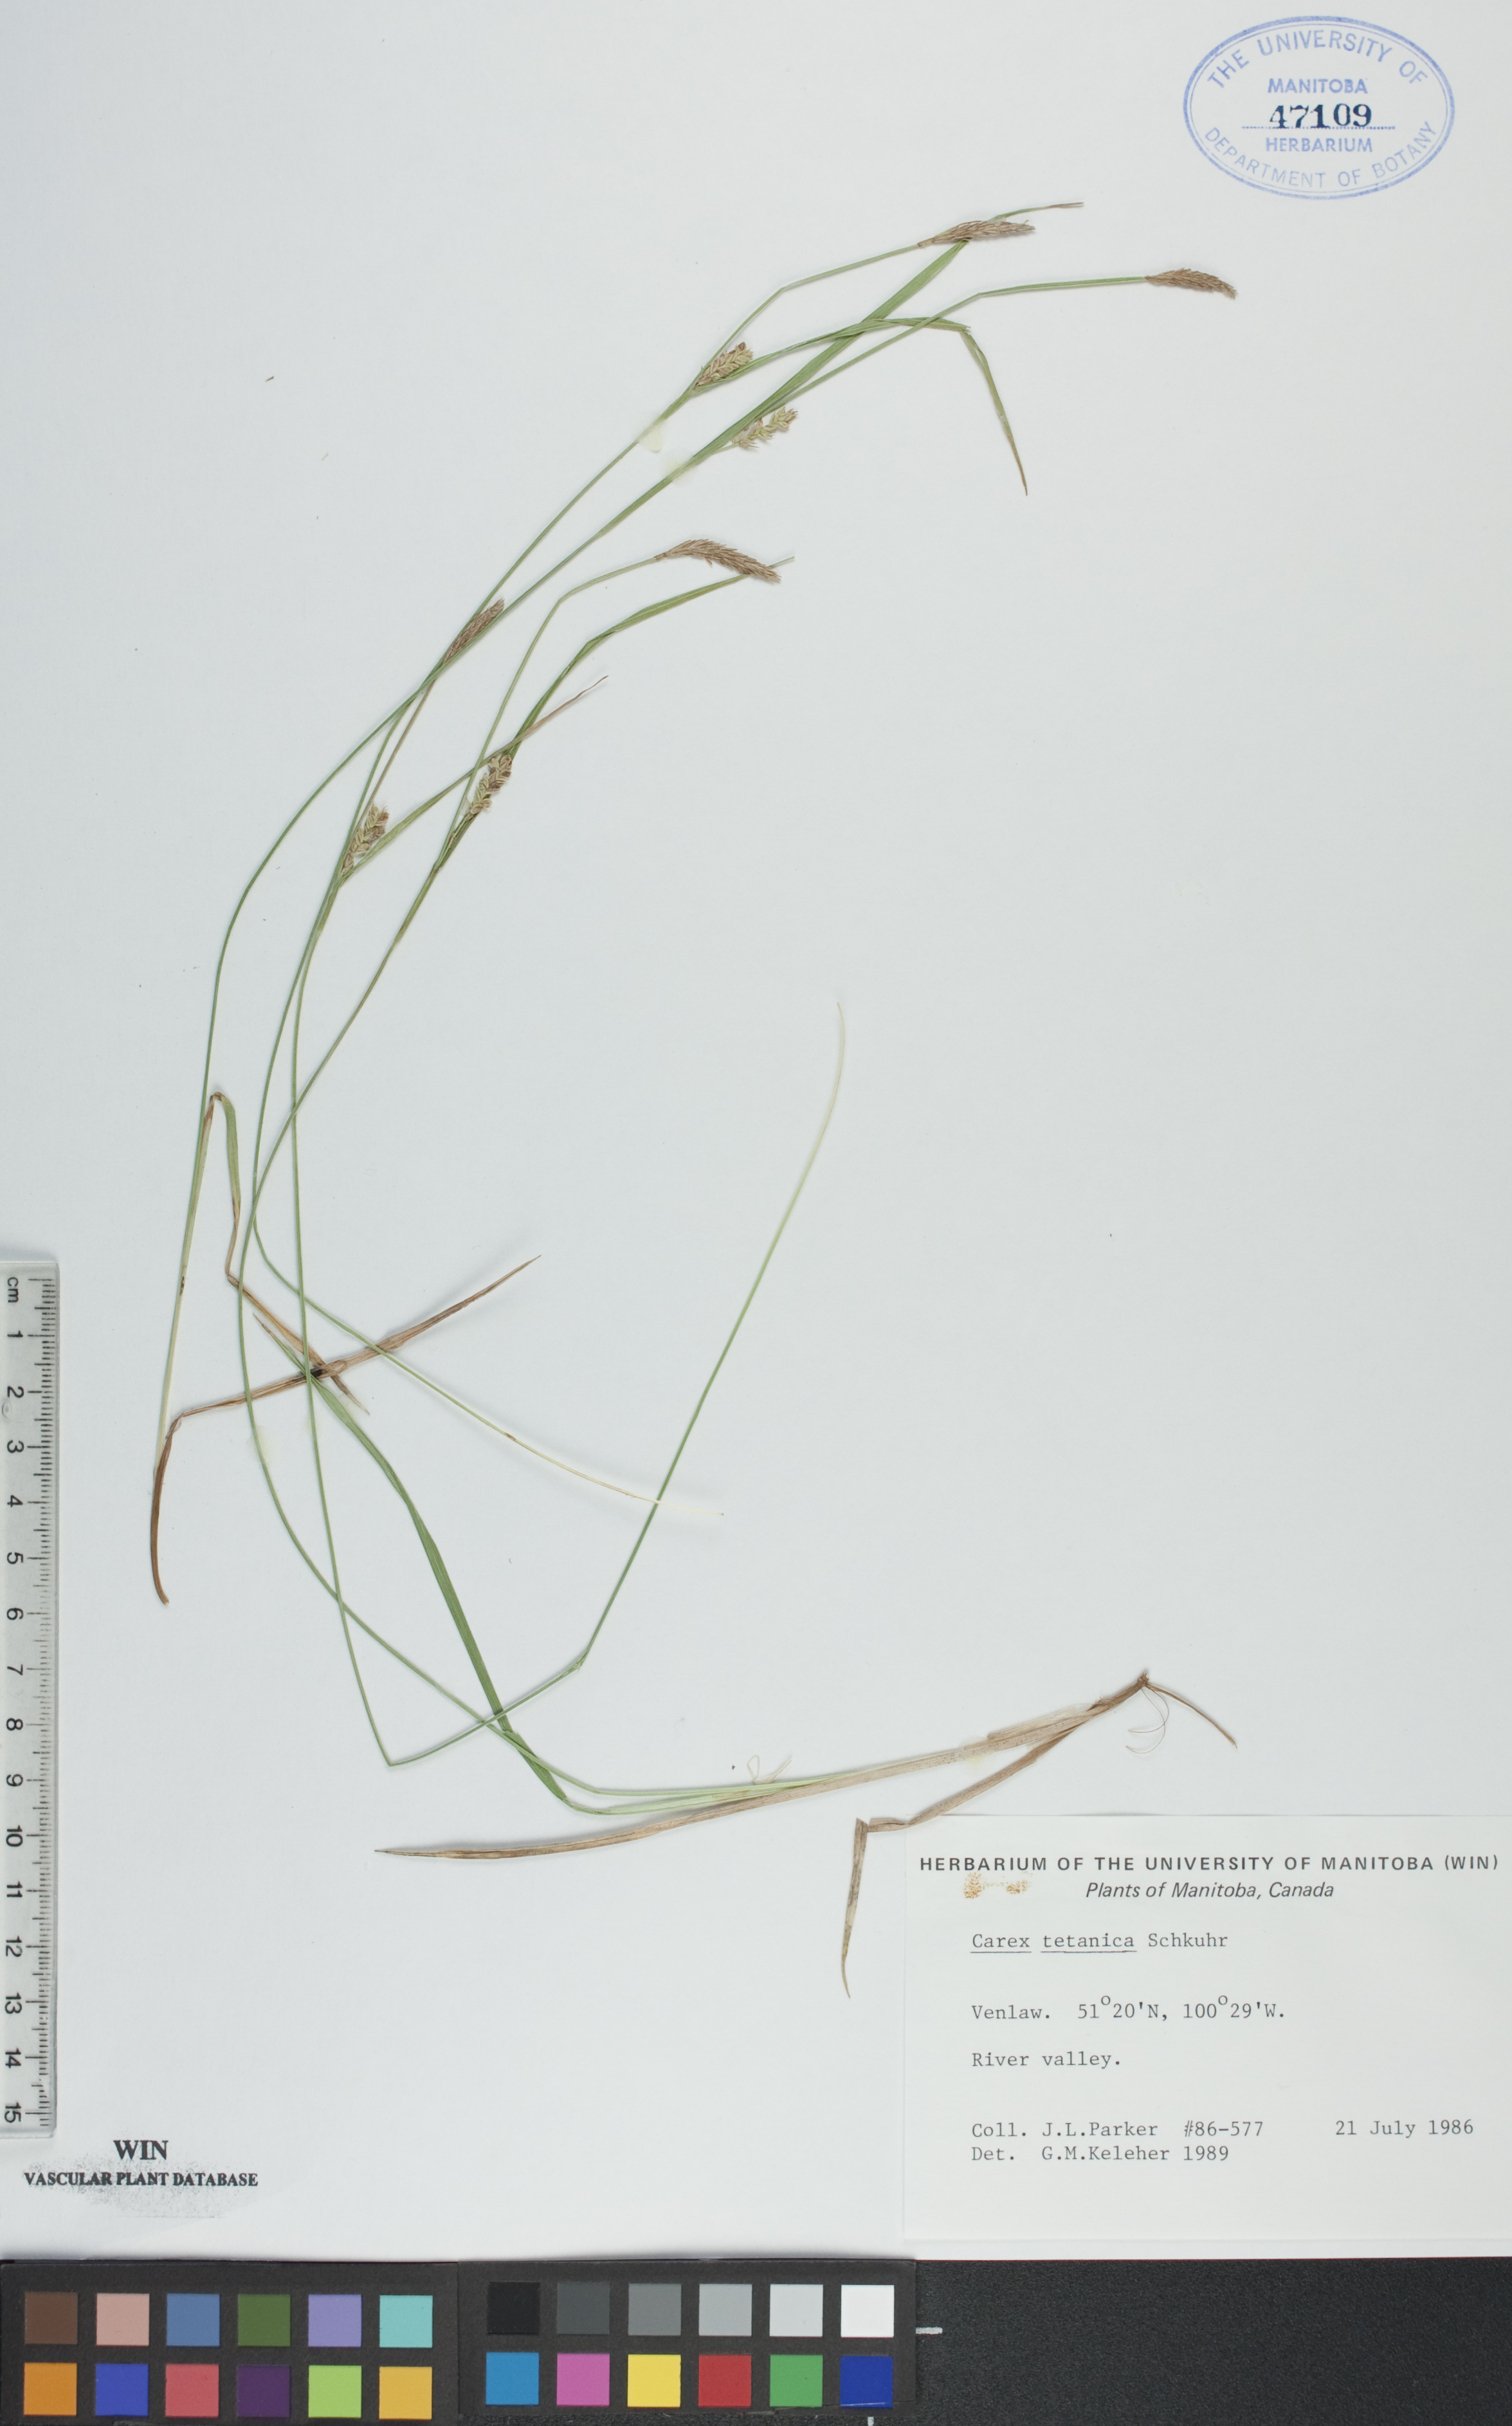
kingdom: Plantae
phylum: Tracheophyta
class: Liliopsida
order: Poales
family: Cyperaceae
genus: Carex
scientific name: Carex tetanica
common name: Rigid sedge
